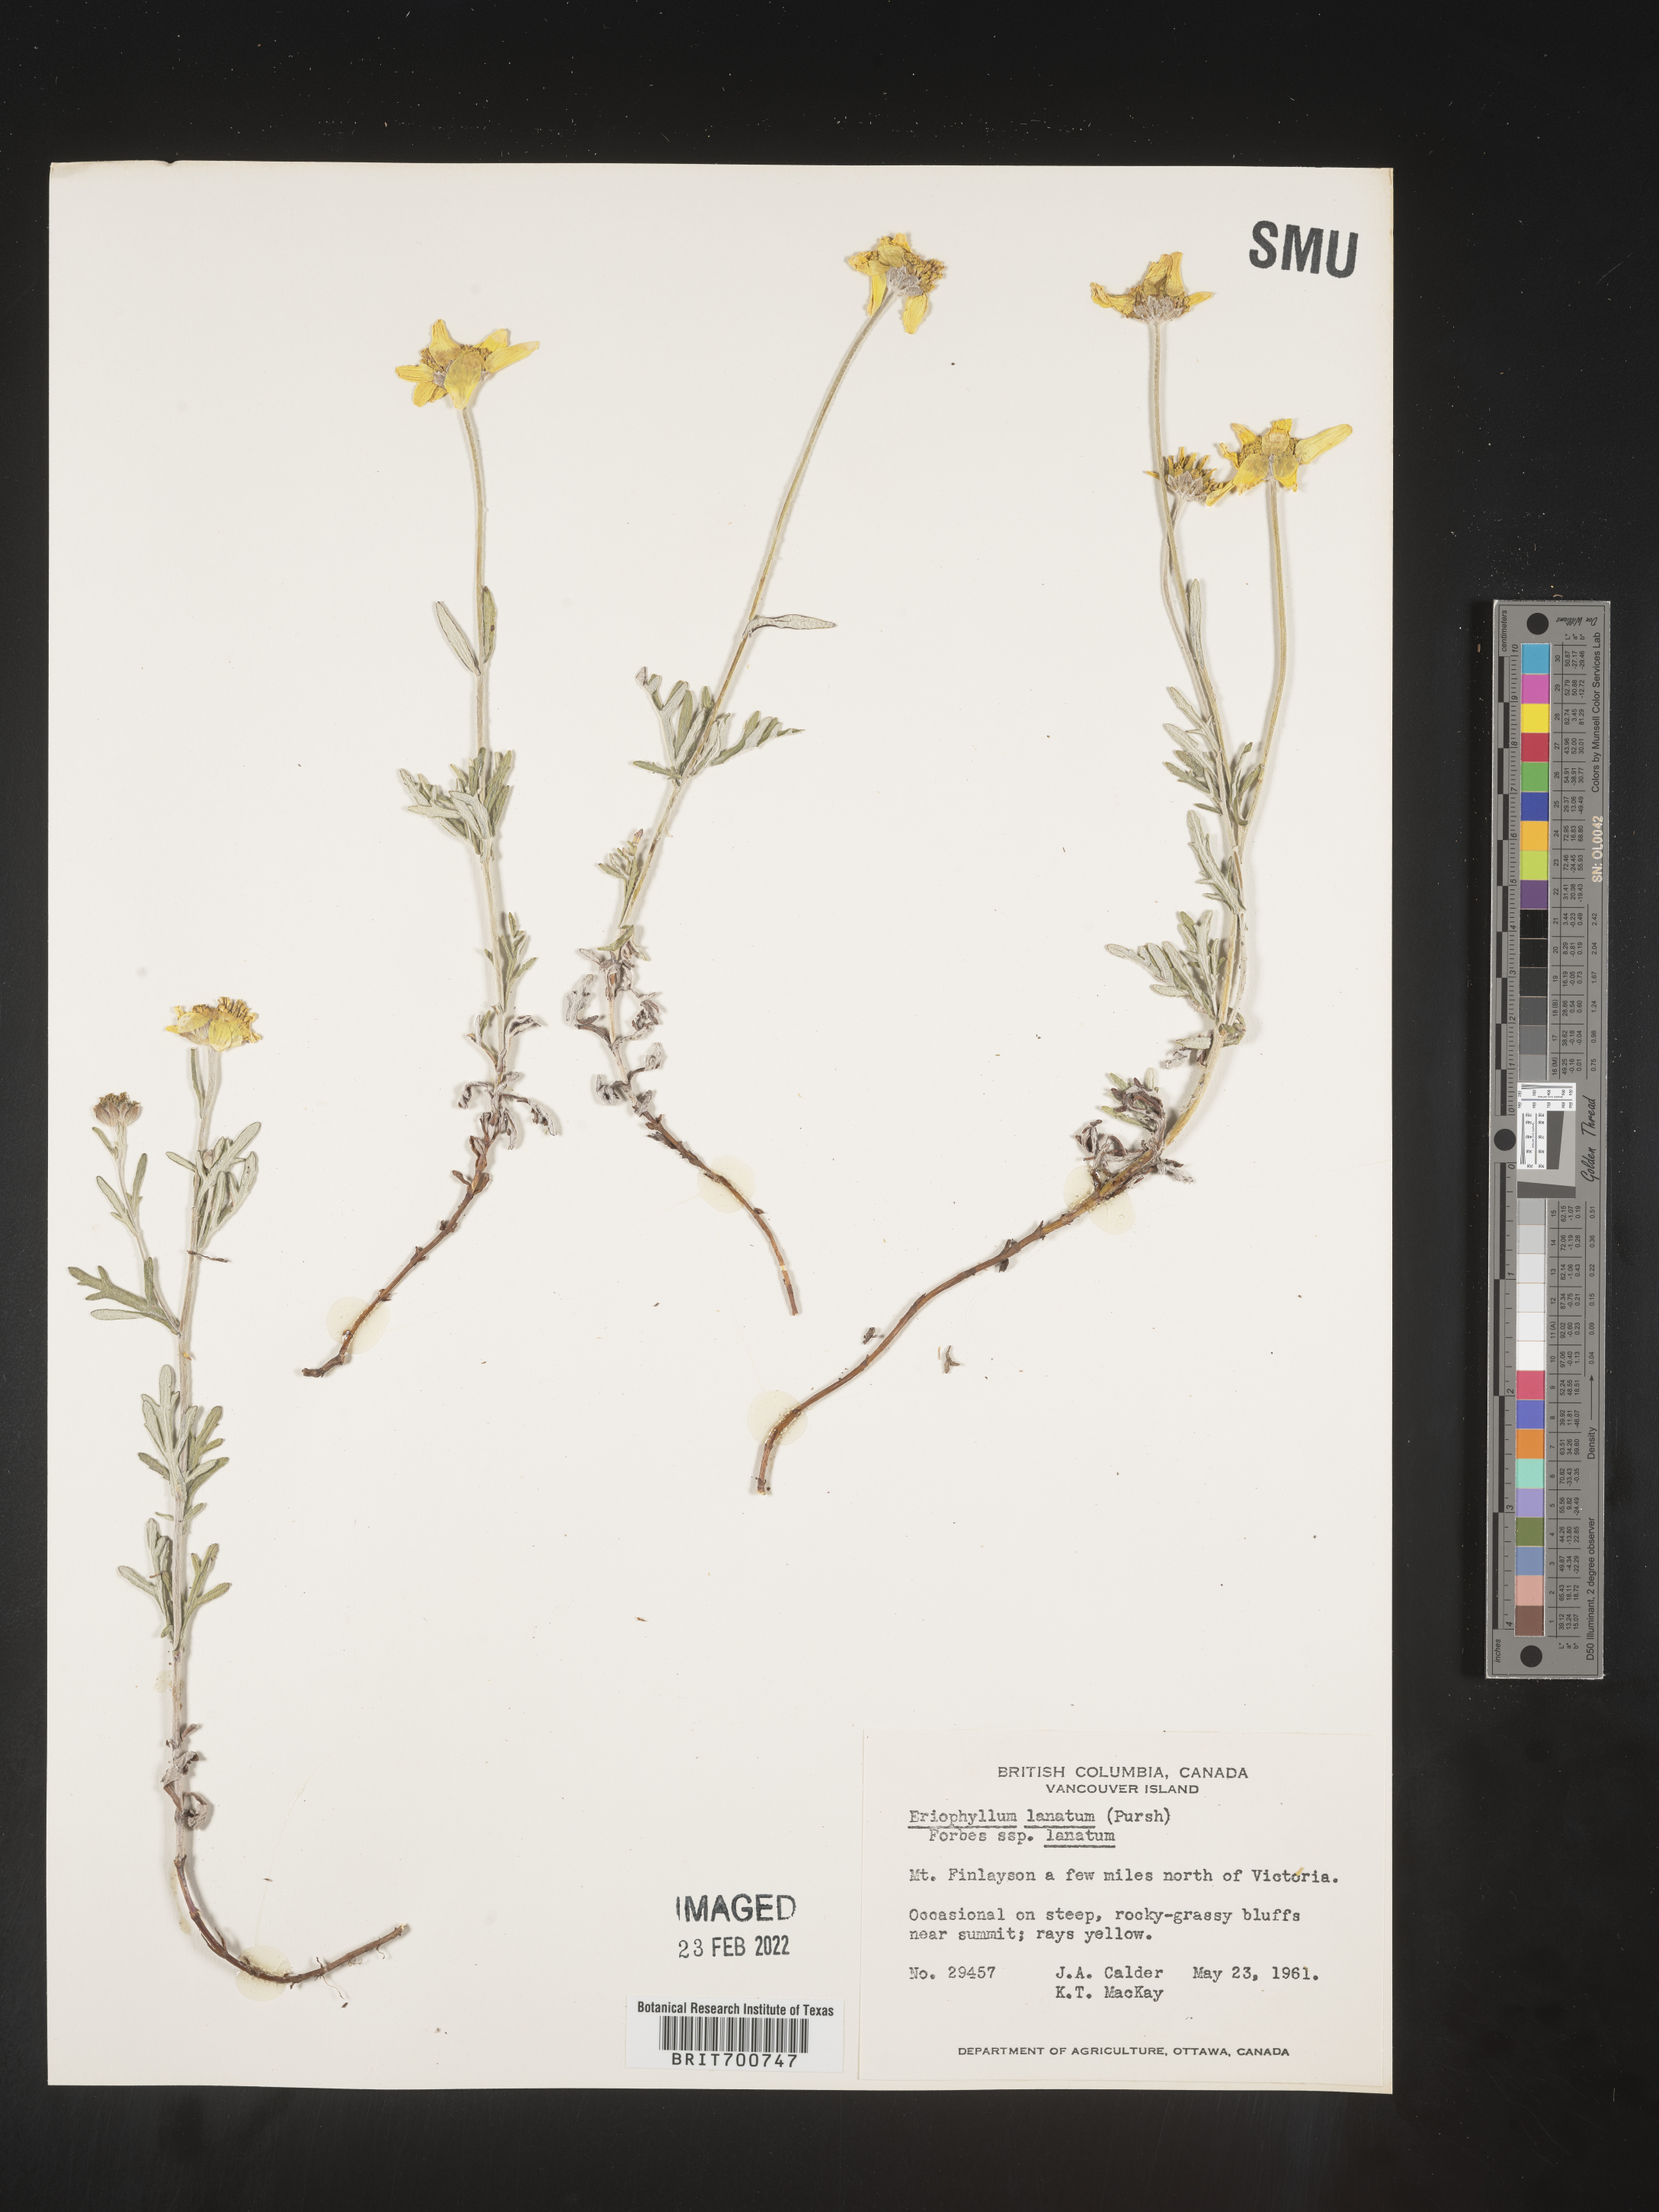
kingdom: Plantae
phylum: Tracheophyta
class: Magnoliopsida
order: Asterales
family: Asteraceae
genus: Eriophyllum
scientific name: Eriophyllum lanatum
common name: Common woolly-sunflower
